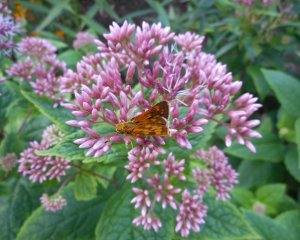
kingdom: Animalia
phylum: Arthropoda
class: Insecta
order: Lepidoptera
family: Hesperiidae
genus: Polites
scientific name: Polites coras
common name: Peck's Skipper
